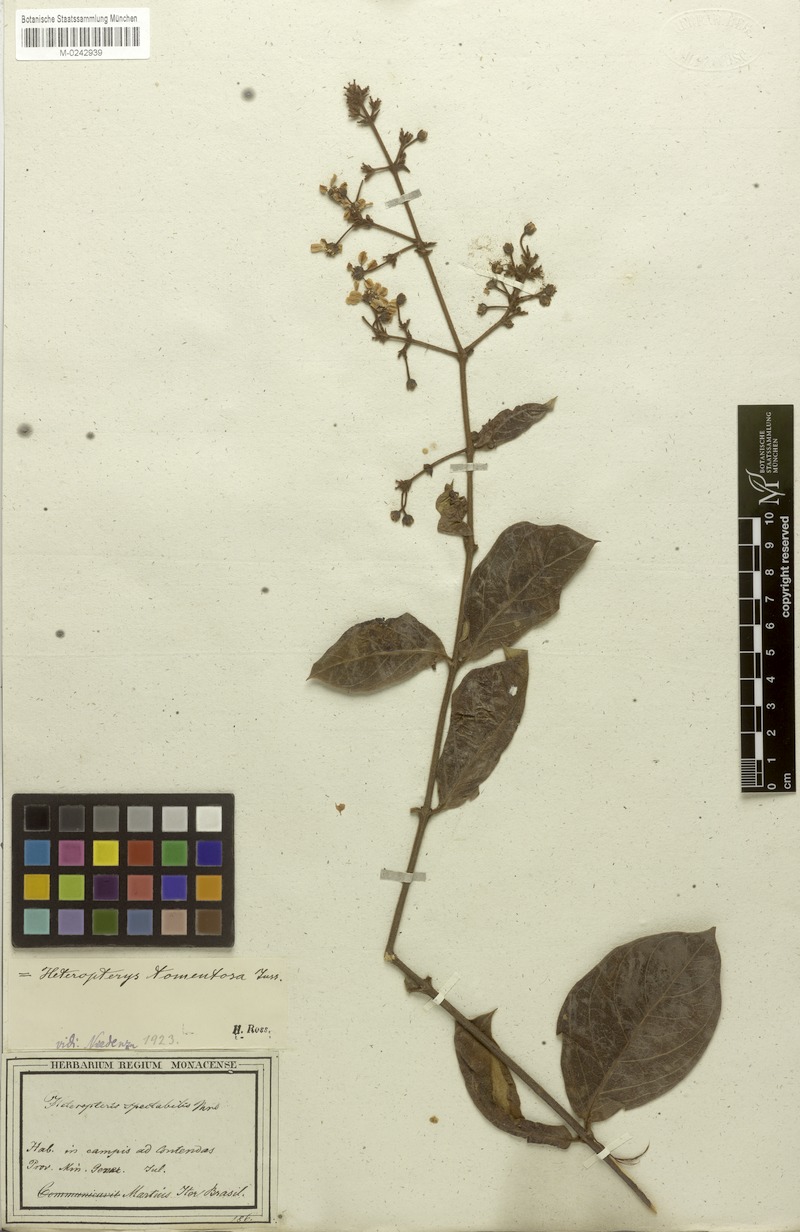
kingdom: Plantae
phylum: Tracheophyta
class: Magnoliopsida
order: Malpighiales
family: Malpighiaceae
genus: Heteropterys
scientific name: Heteropterys tomentosa
